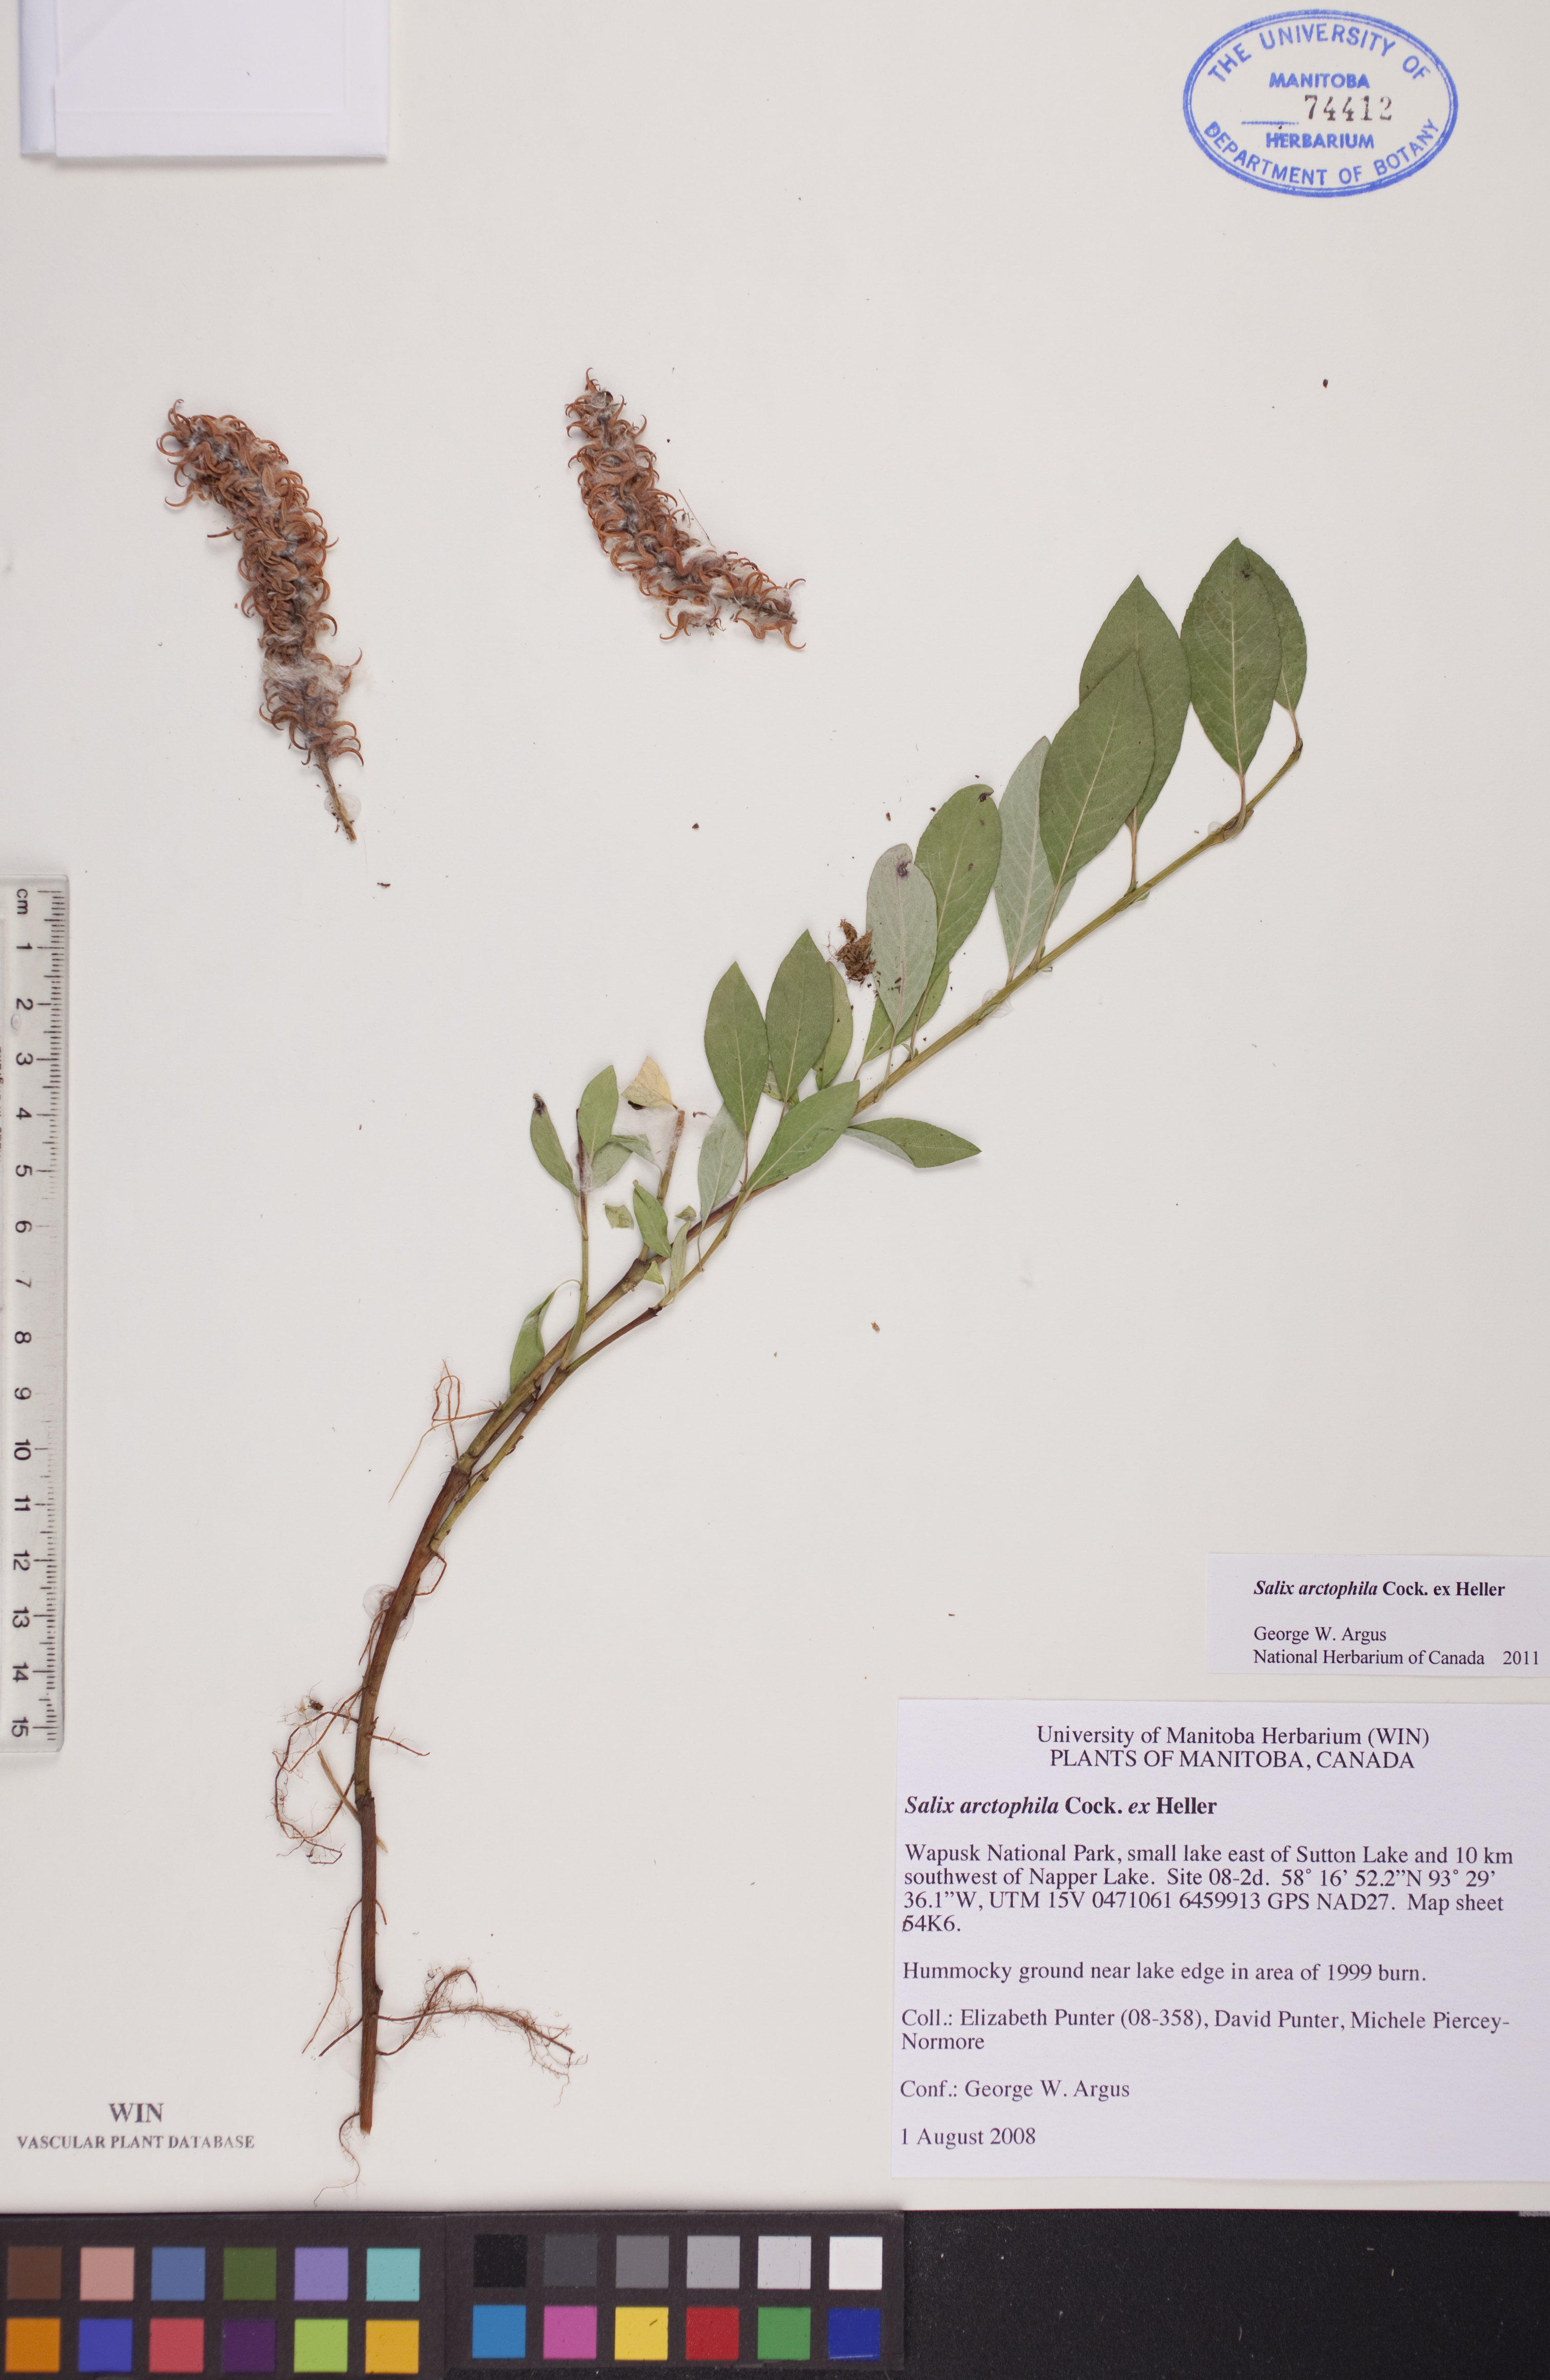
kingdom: Plantae
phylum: Tracheophyta
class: Magnoliopsida
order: Malpighiales
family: Salicaceae
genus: Salix
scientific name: Salix arctophila
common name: Greenland willow
